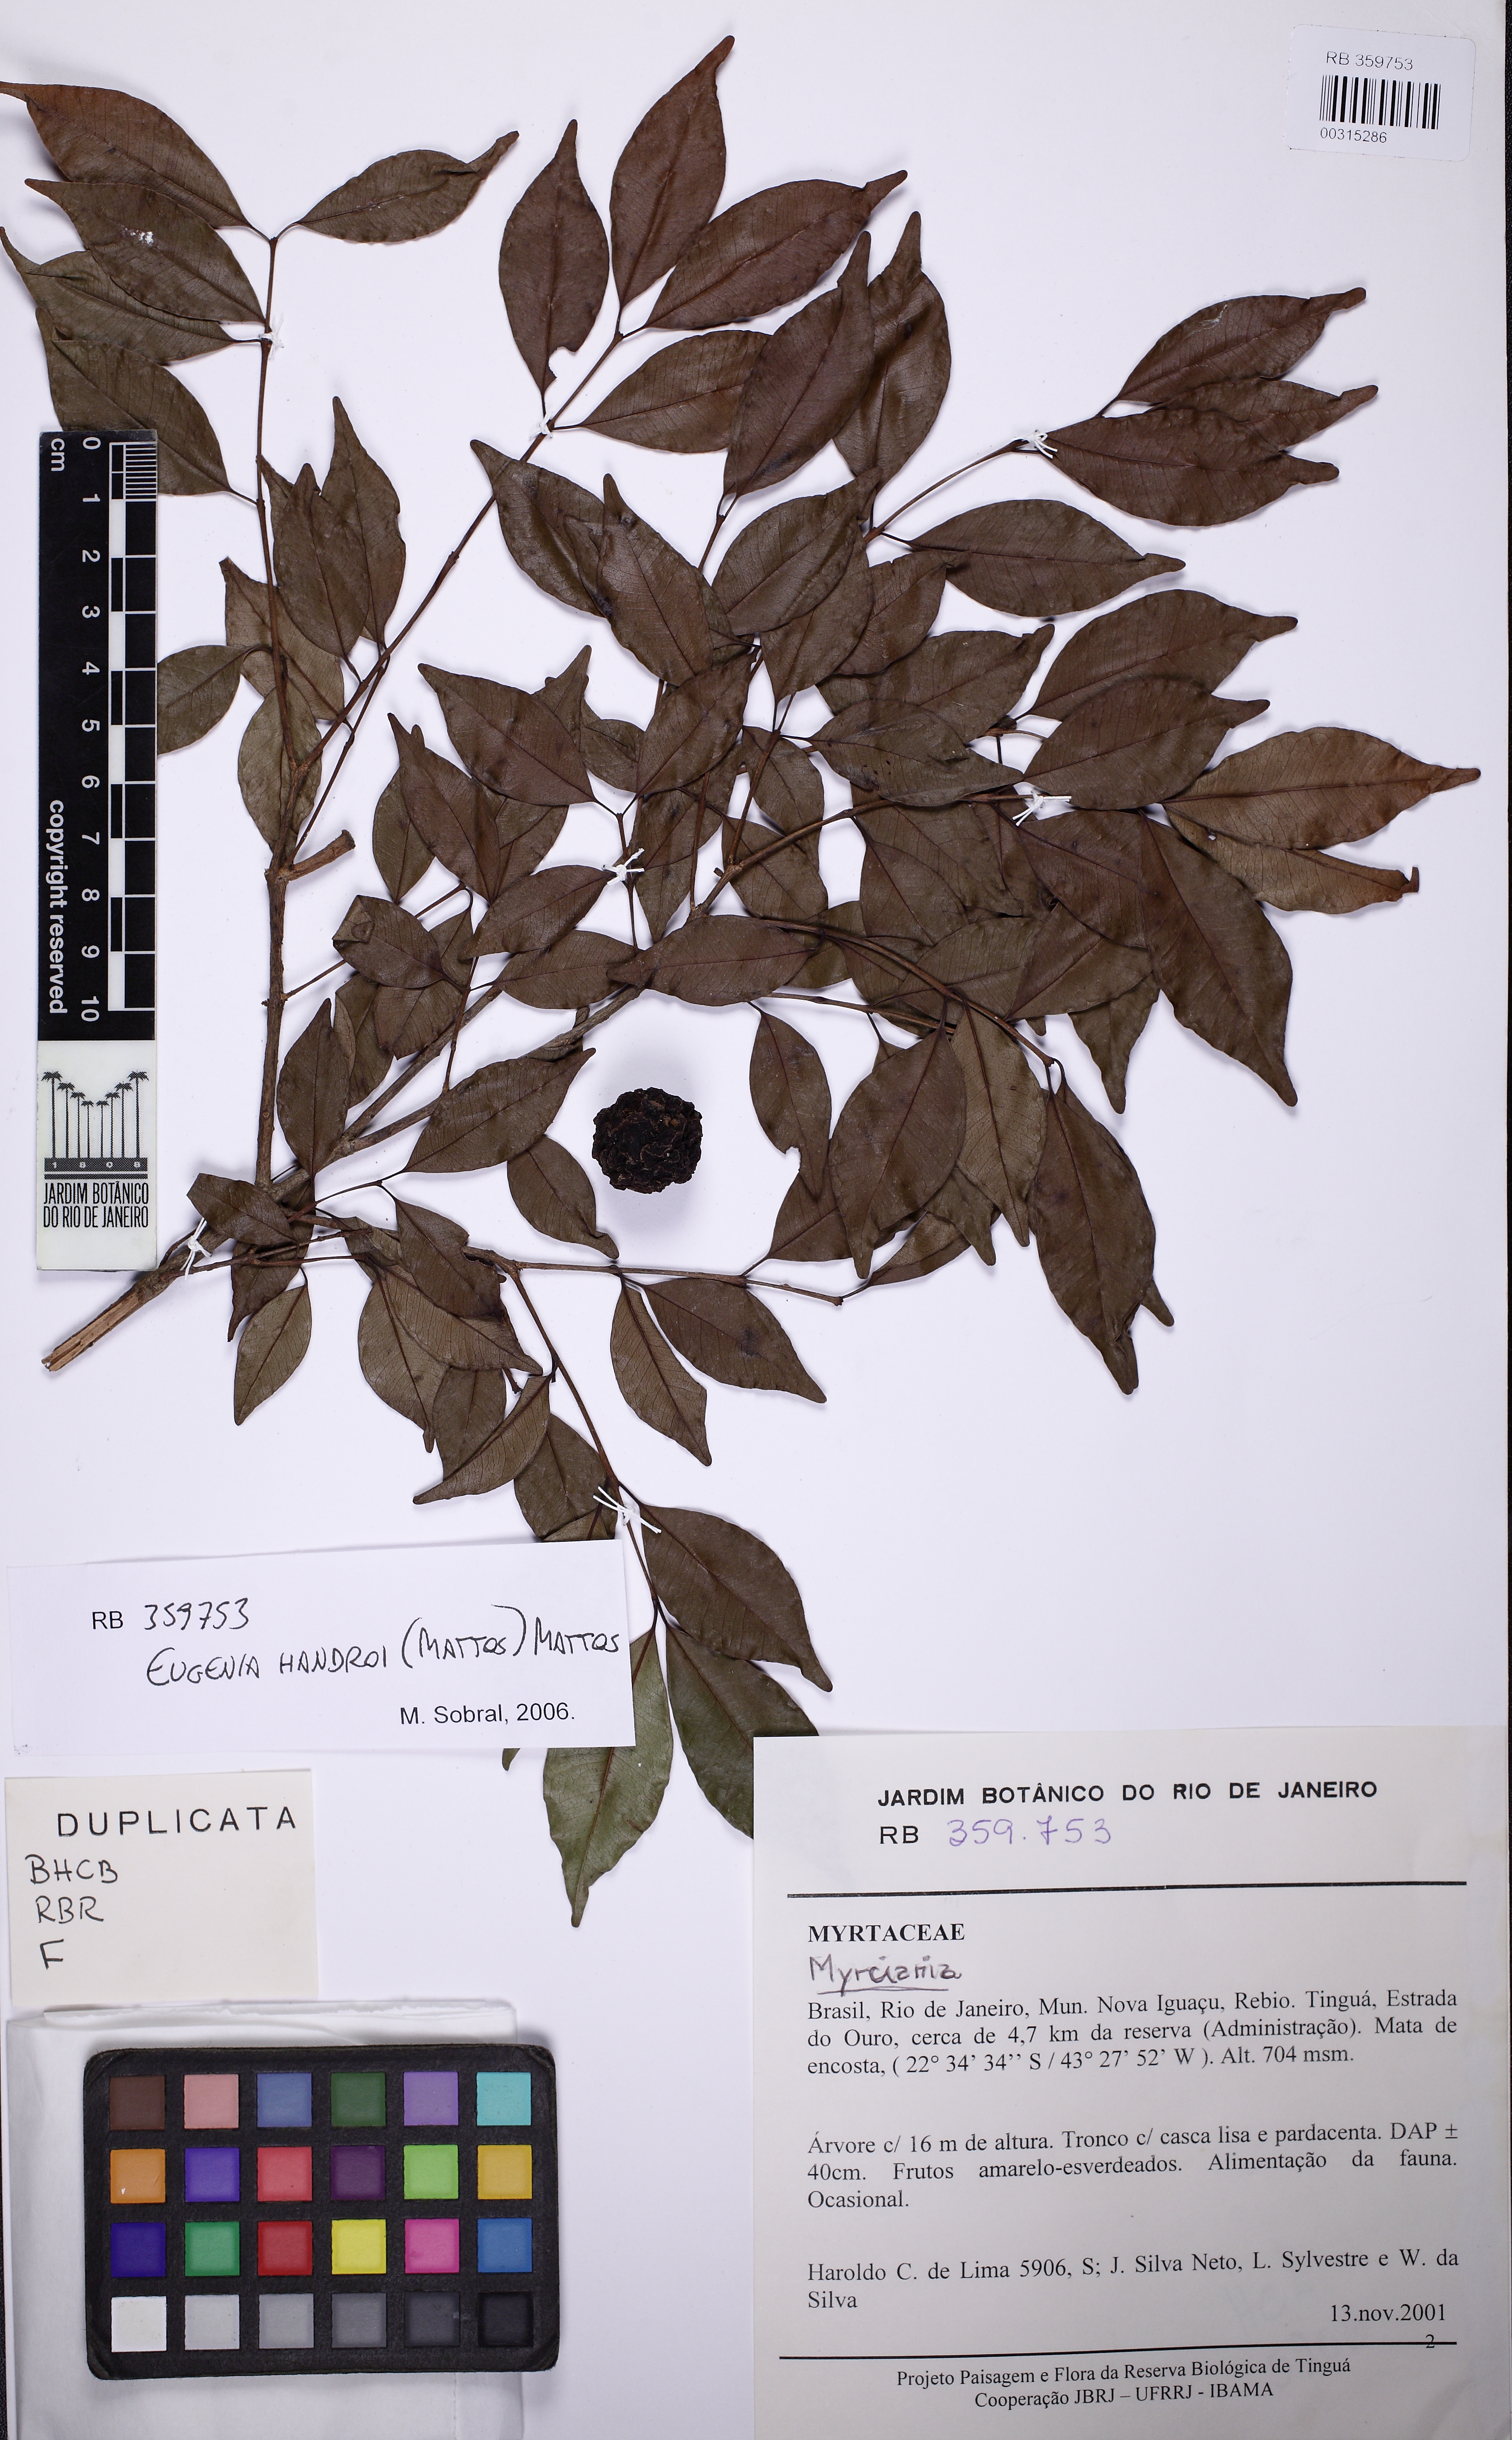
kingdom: Plantae
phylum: Tracheophyta
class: Magnoliopsida
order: Myrtales
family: Myrtaceae
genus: Eugenia
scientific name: Eugenia handroi
